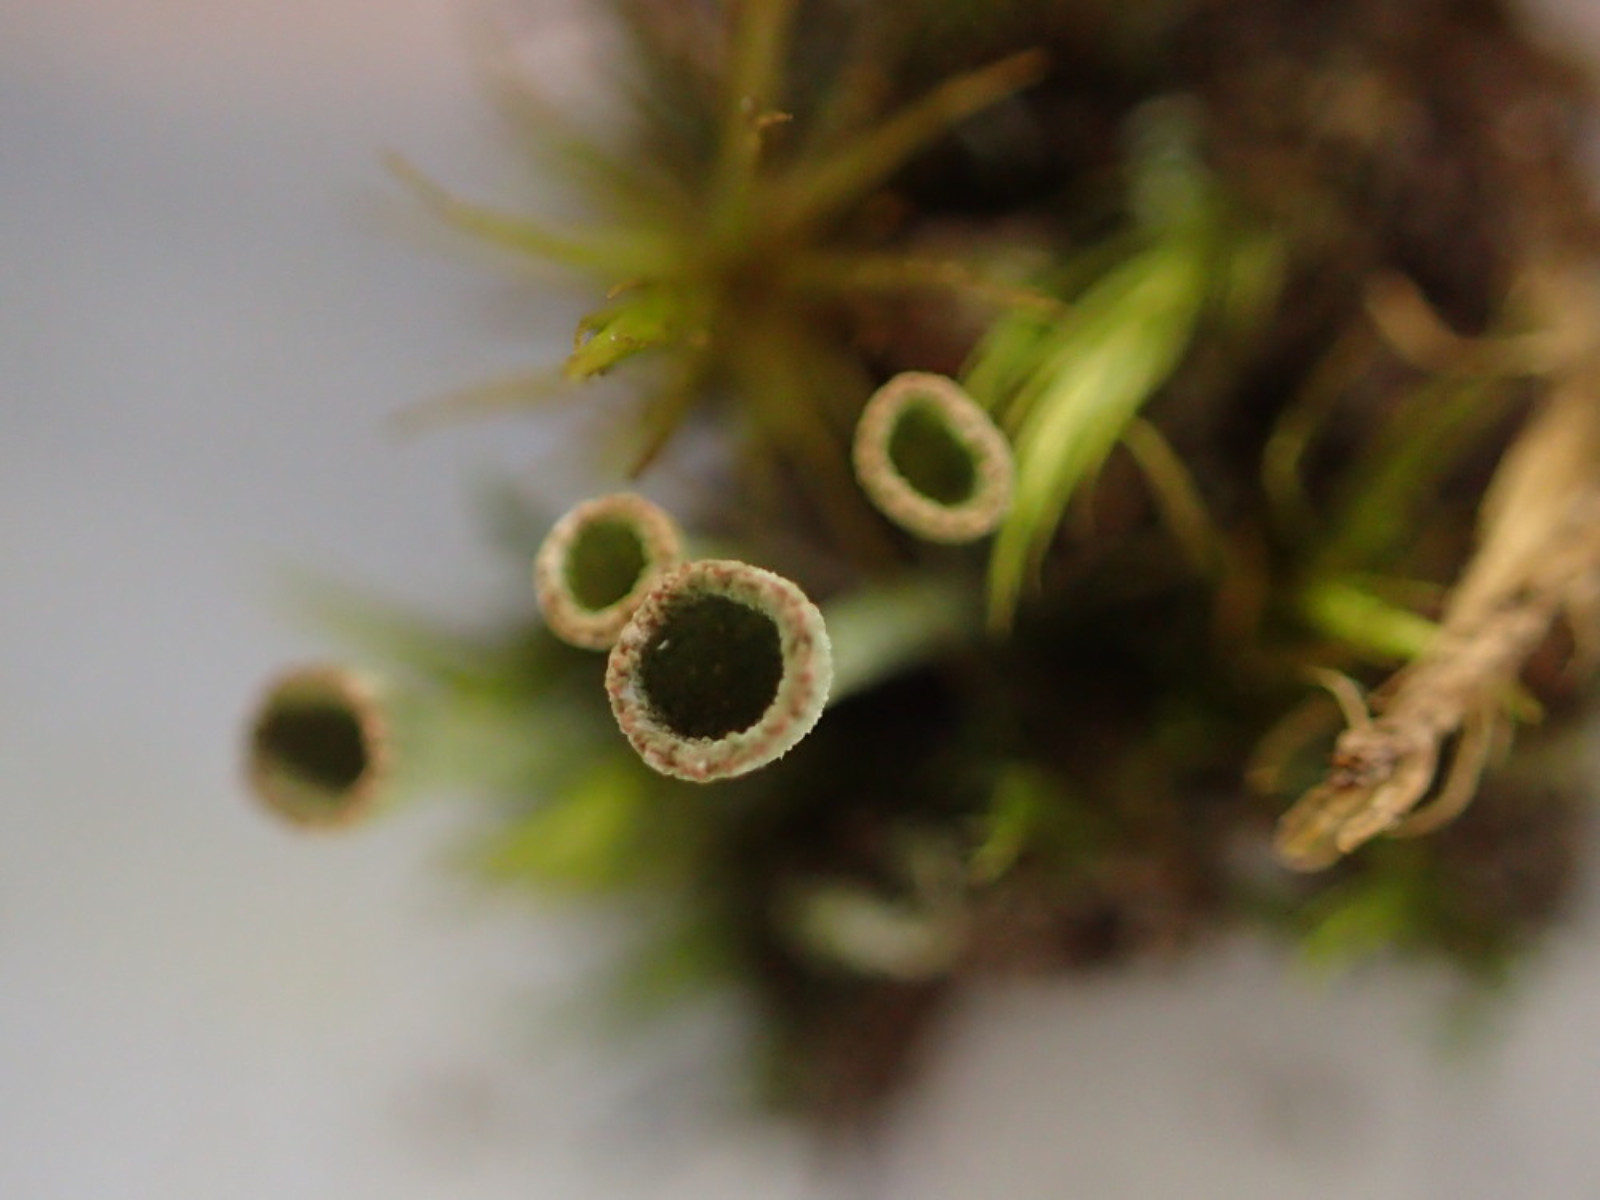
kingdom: Fungi
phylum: Ascomycota
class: Lecanoromycetes
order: Lecanorales
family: Cladoniaceae
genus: Cladonia
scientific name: Cladonia
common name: brungrøn bægerlav
